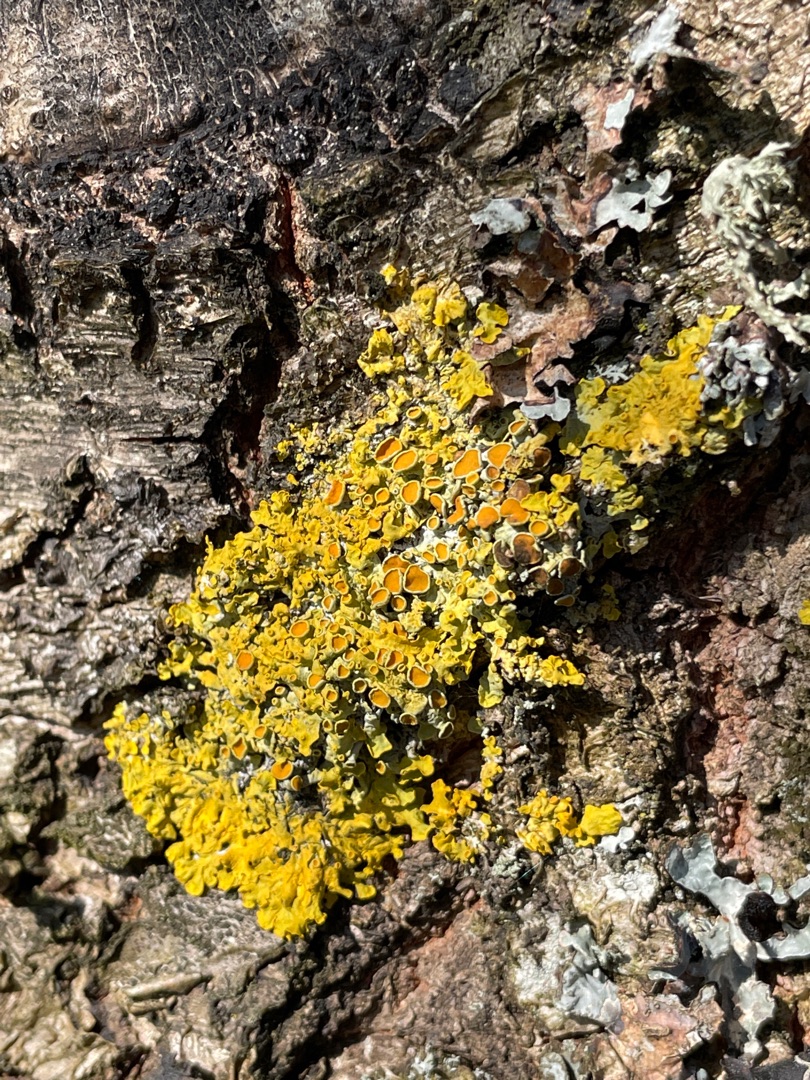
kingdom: Fungi
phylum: Ascomycota
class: Lecanoromycetes
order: Teloschistales
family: Teloschistaceae
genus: Xanthoria
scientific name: Xanthoria parietina
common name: Almindelig væggelav
